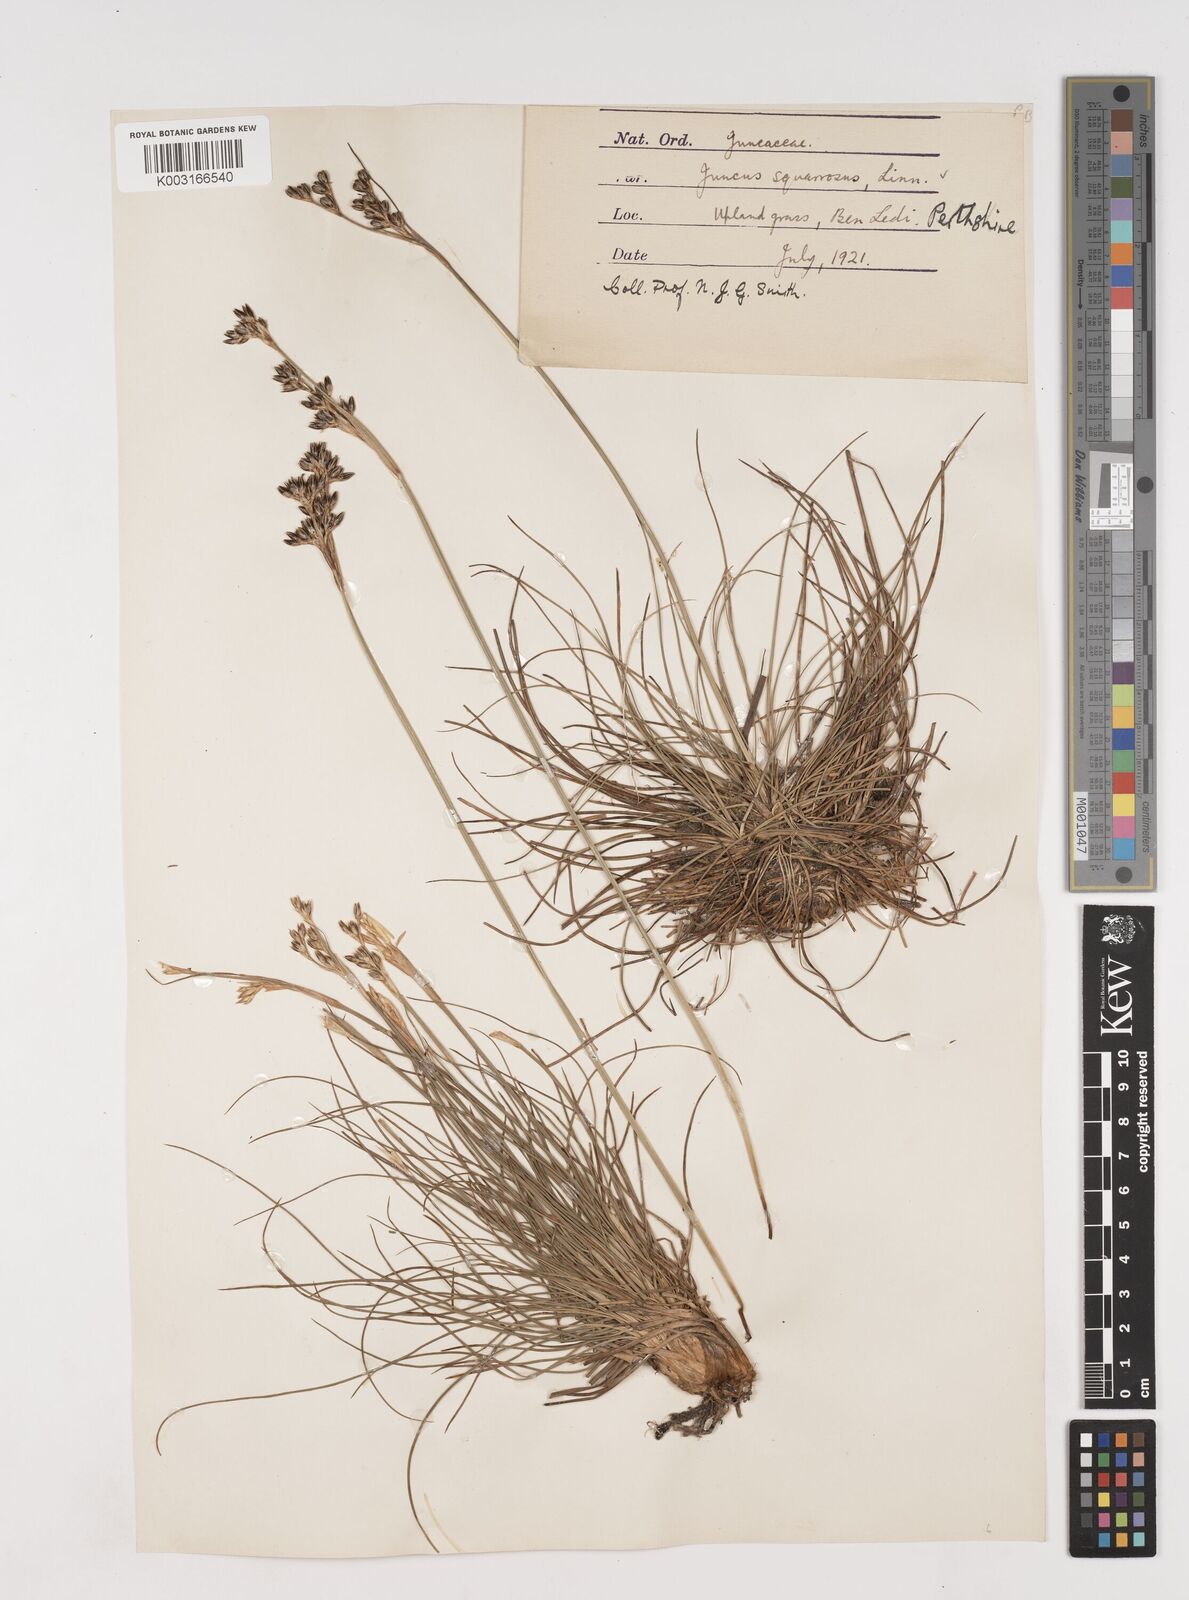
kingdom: Plantae
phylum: Tracheophyta
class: Liliopsida
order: Poales
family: Juncaceae
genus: Juncus
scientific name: Juncus squarrosus
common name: Heath rush
